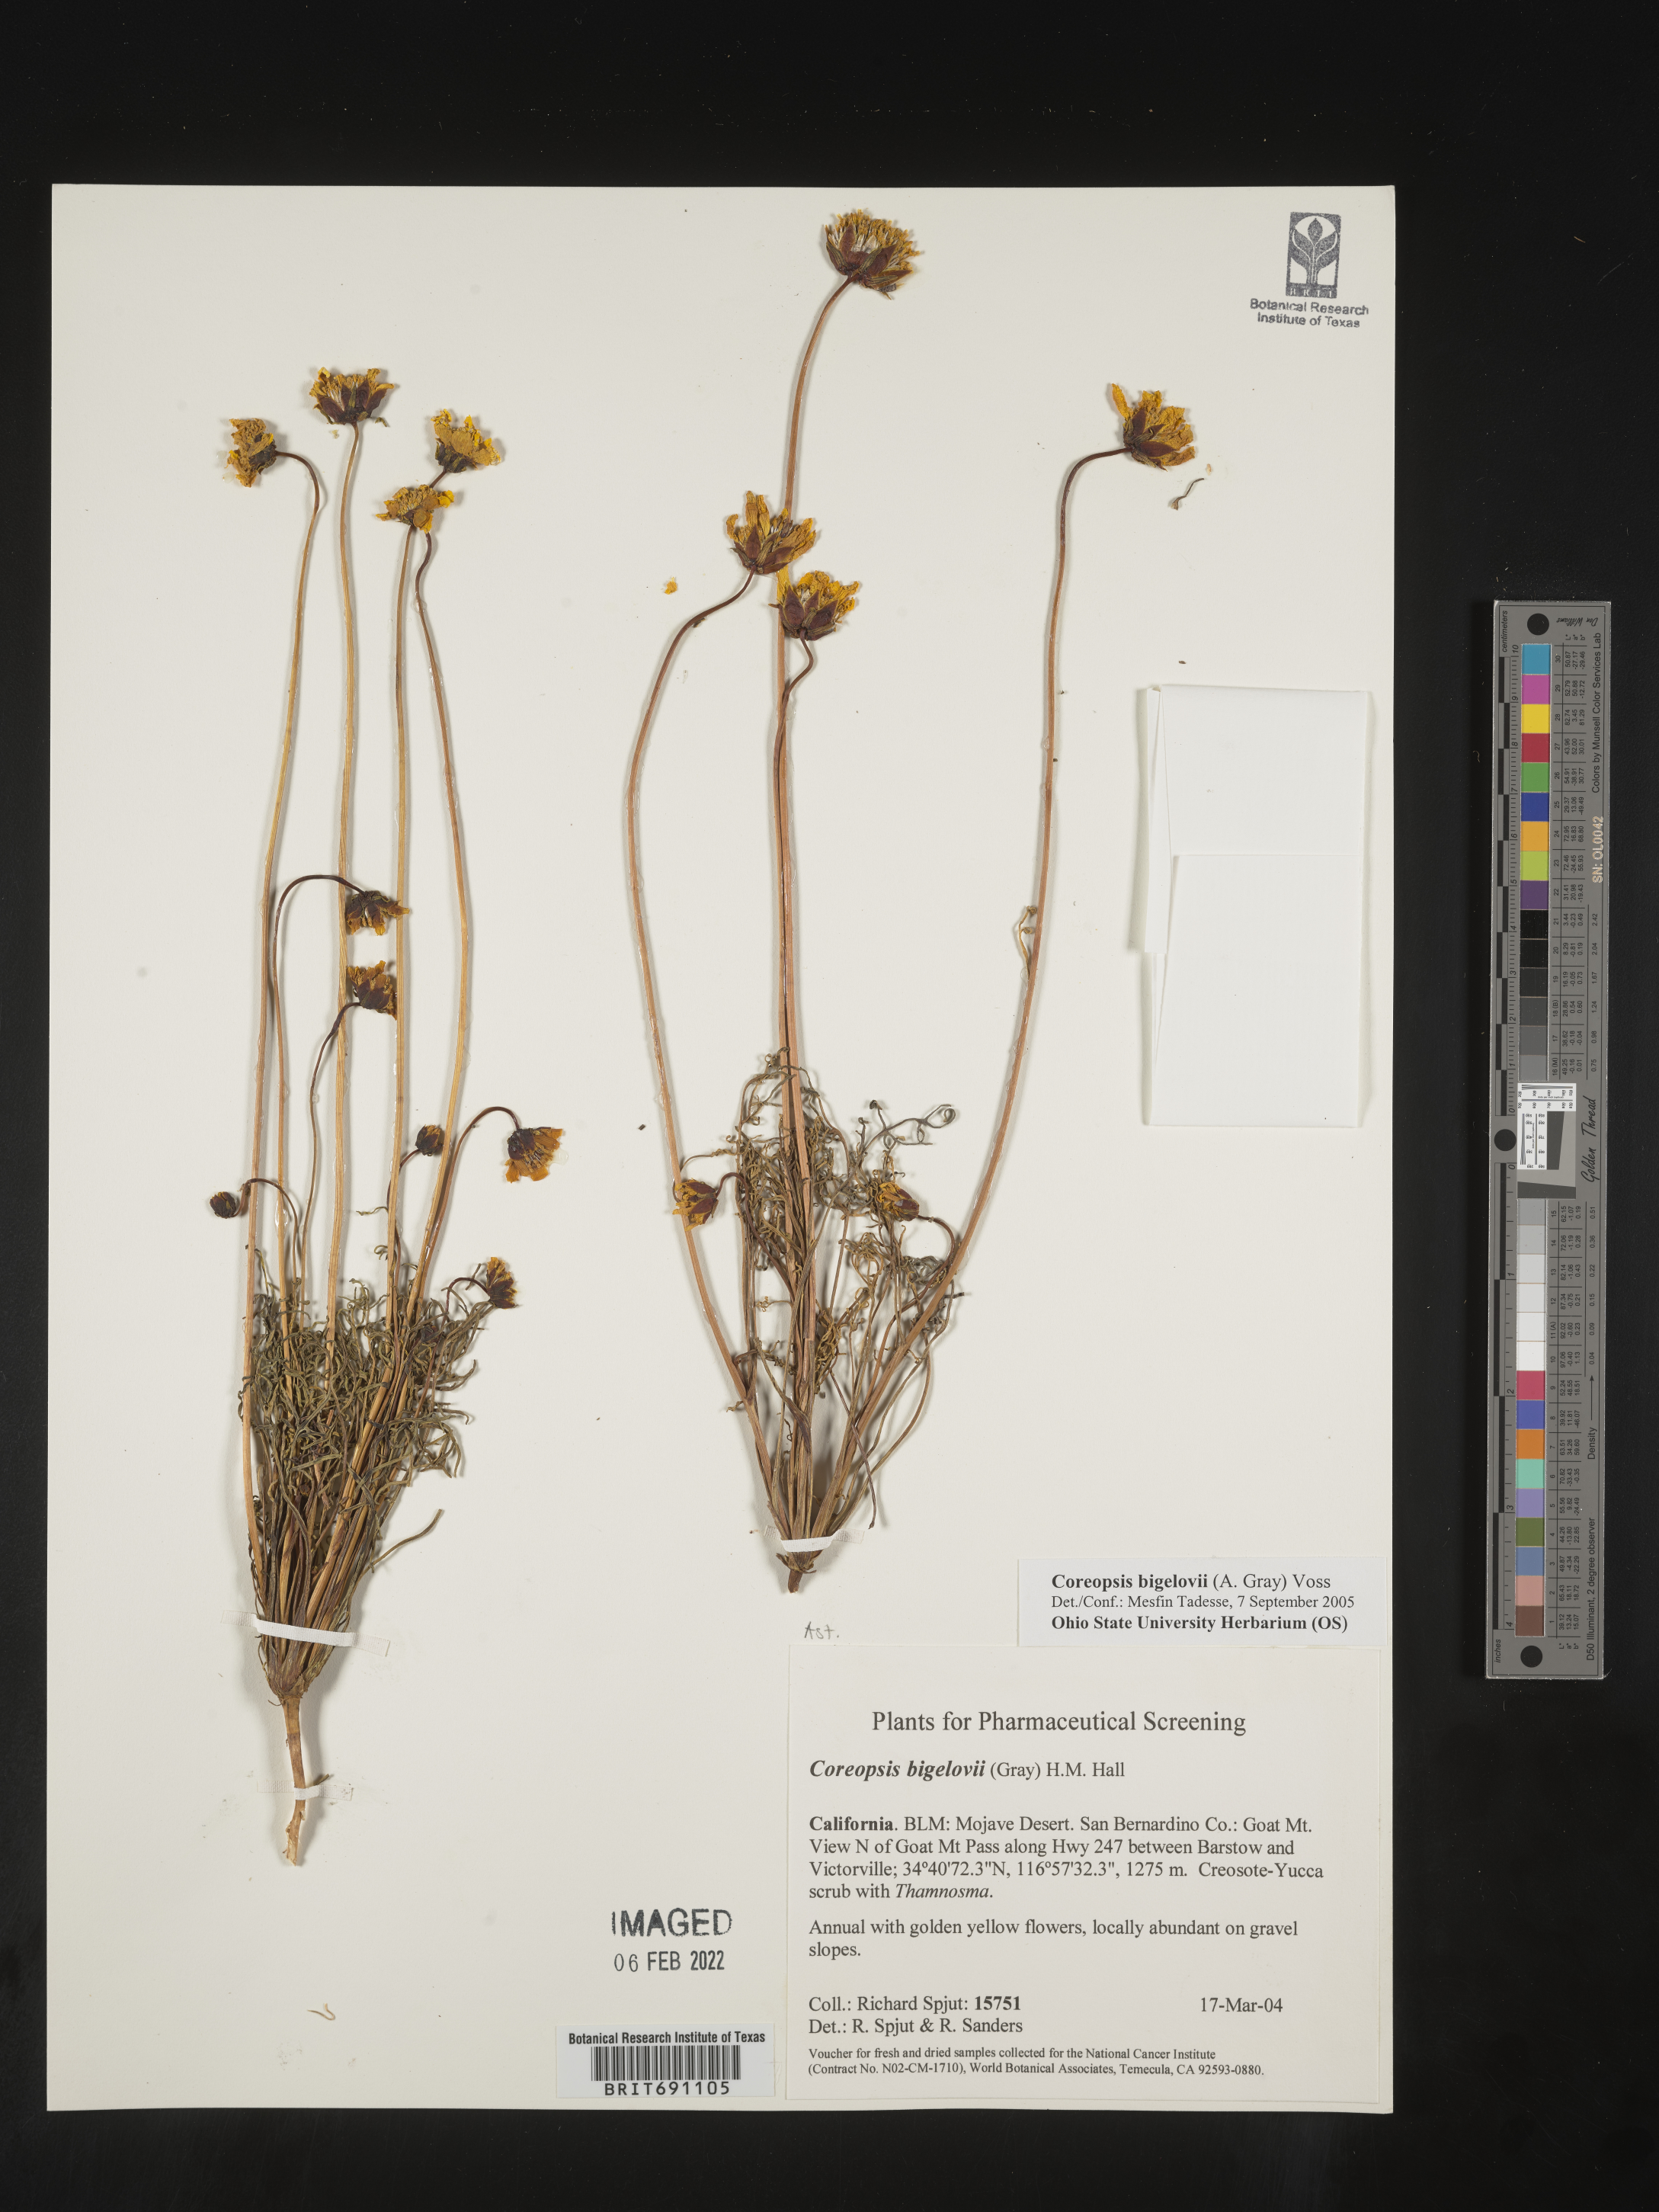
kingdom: Plantae
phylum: Tracheophyta
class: Magnoliopsida
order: Asterales
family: Asteraceae
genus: Coreopsis
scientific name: Coreopsis
